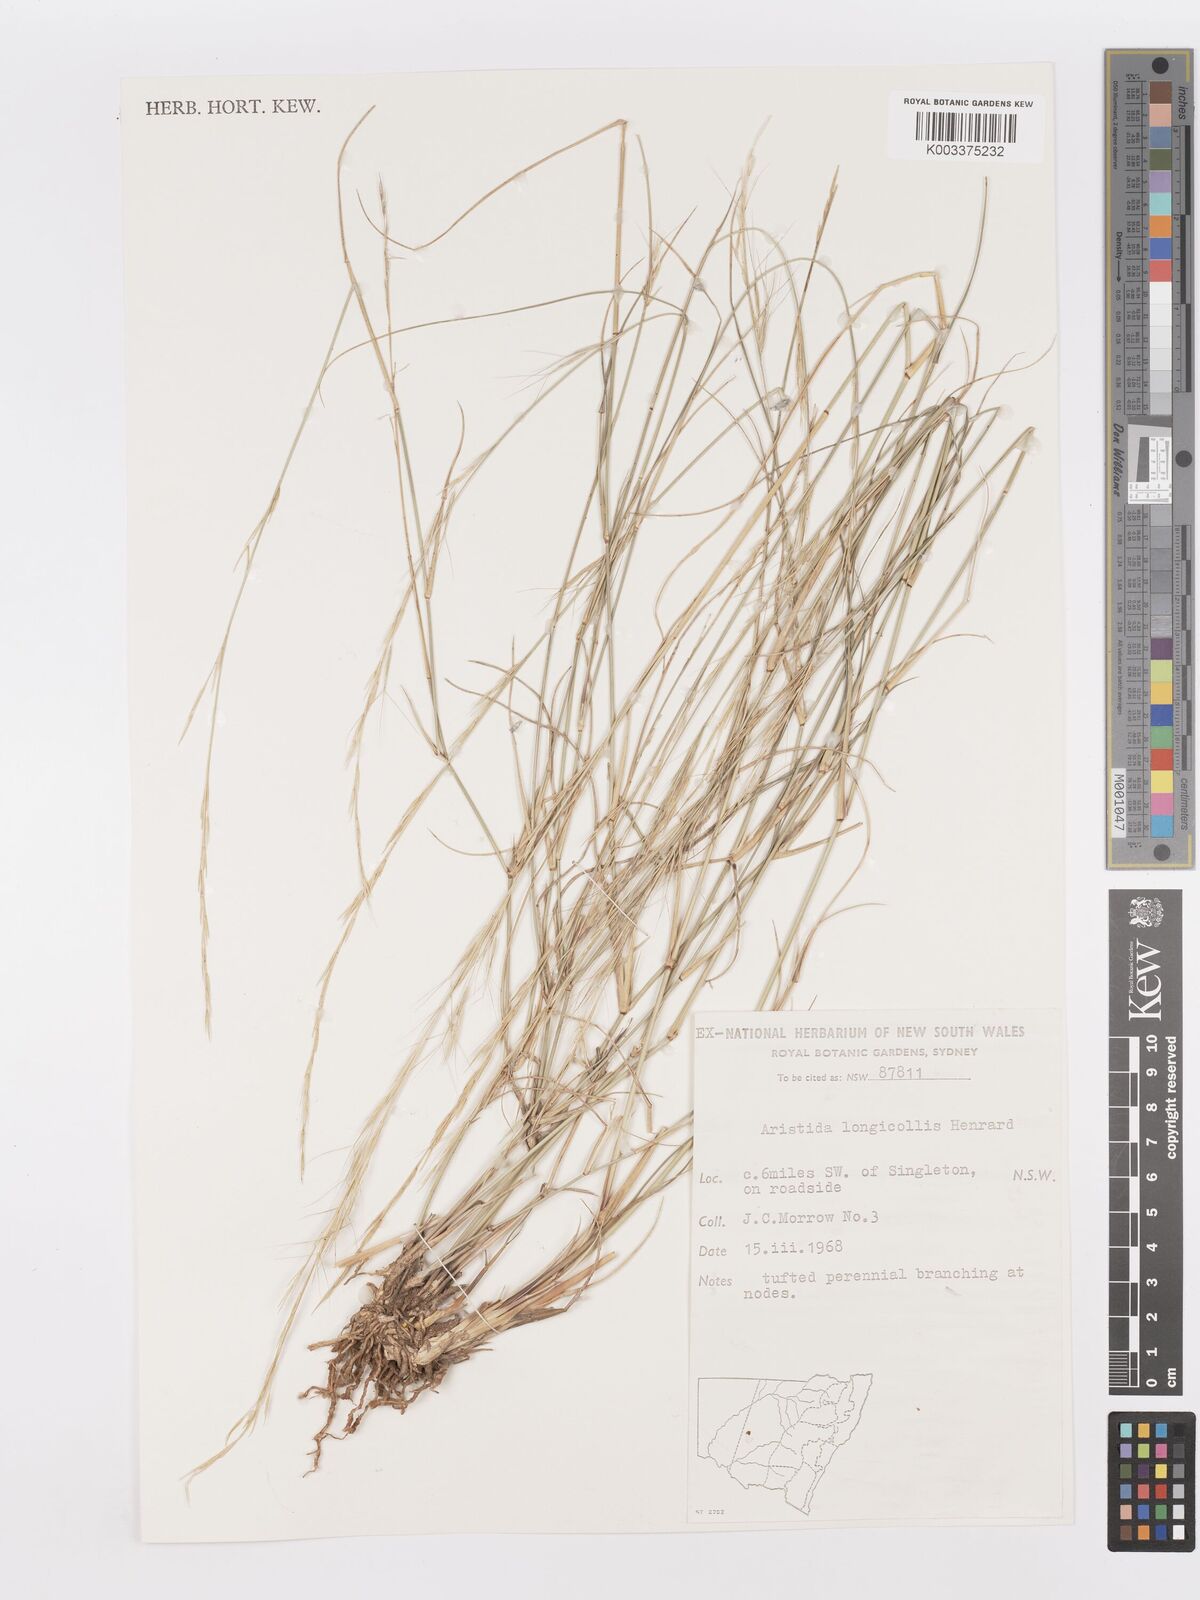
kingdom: Plantae
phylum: Tracheophyta
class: Liliopsida
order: Poales
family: Poaceae
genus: Aristida
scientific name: Aristida longicollis
